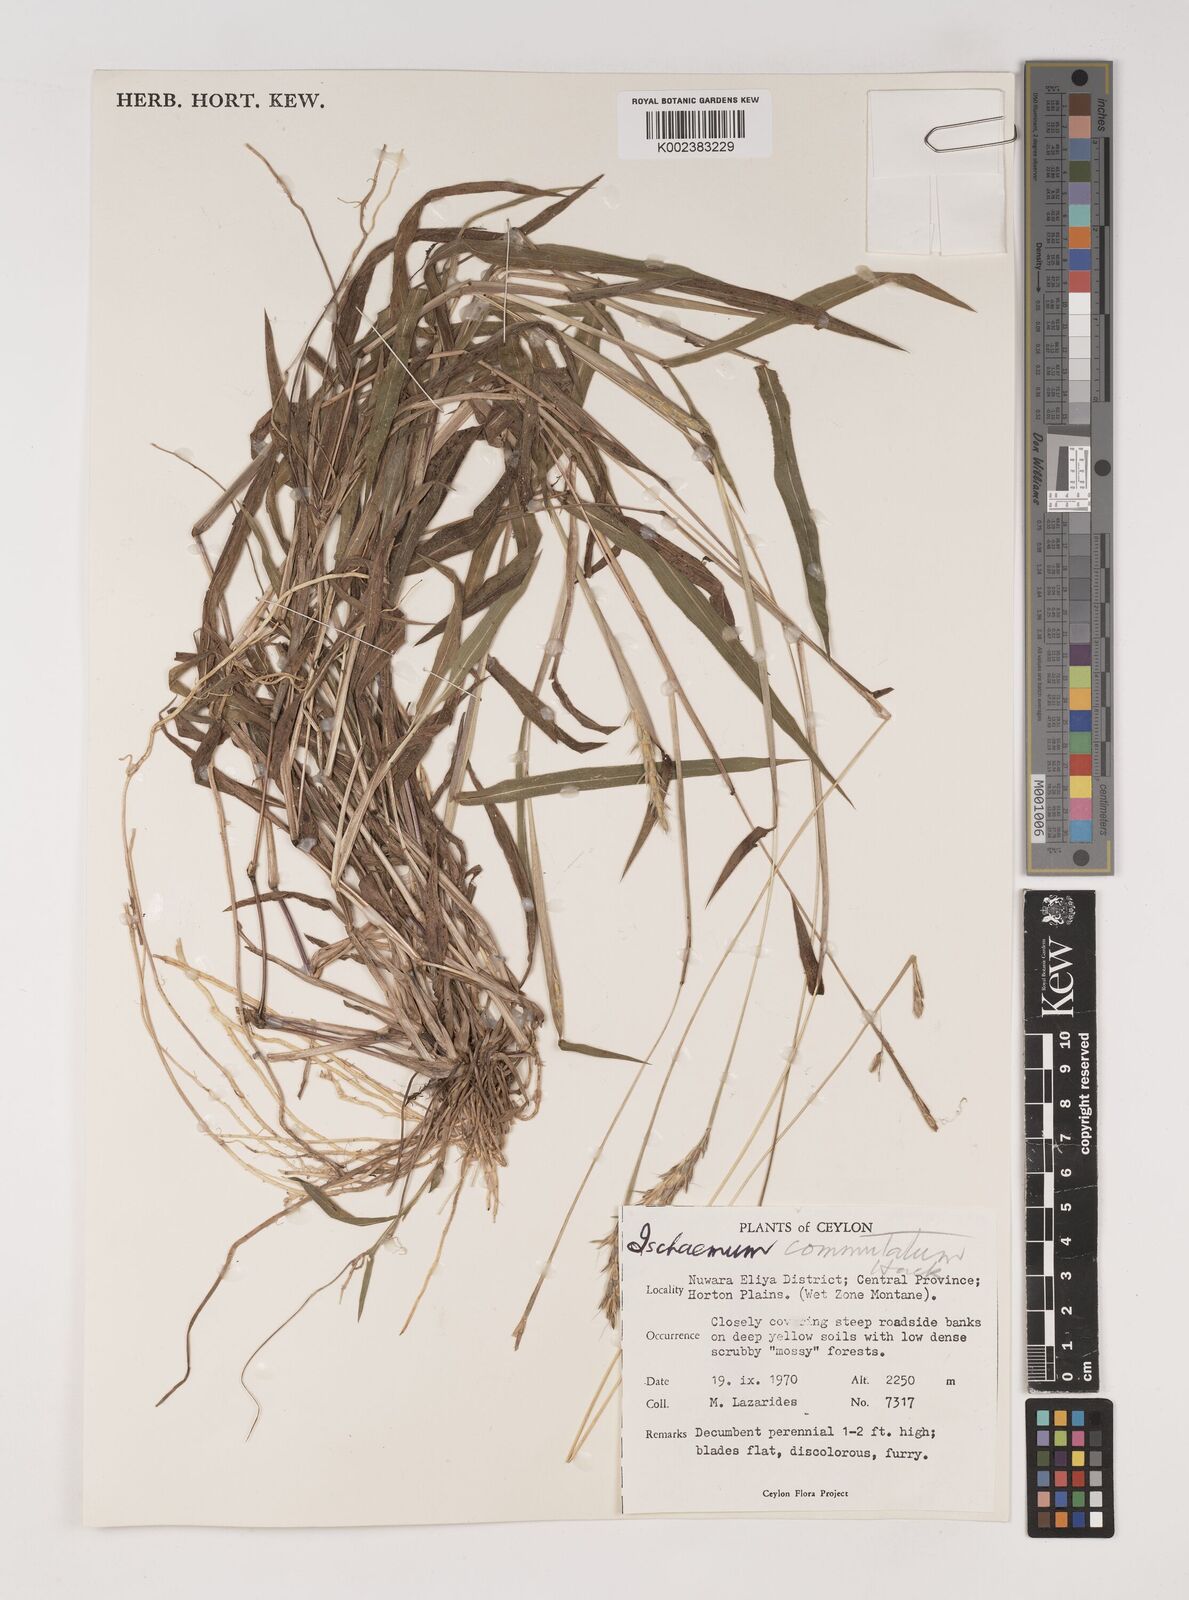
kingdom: Plantae
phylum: Tracheophyta
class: Liliopsida
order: Poales
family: Poaceae
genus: Ischaemum
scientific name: Ischaemum commutatum
